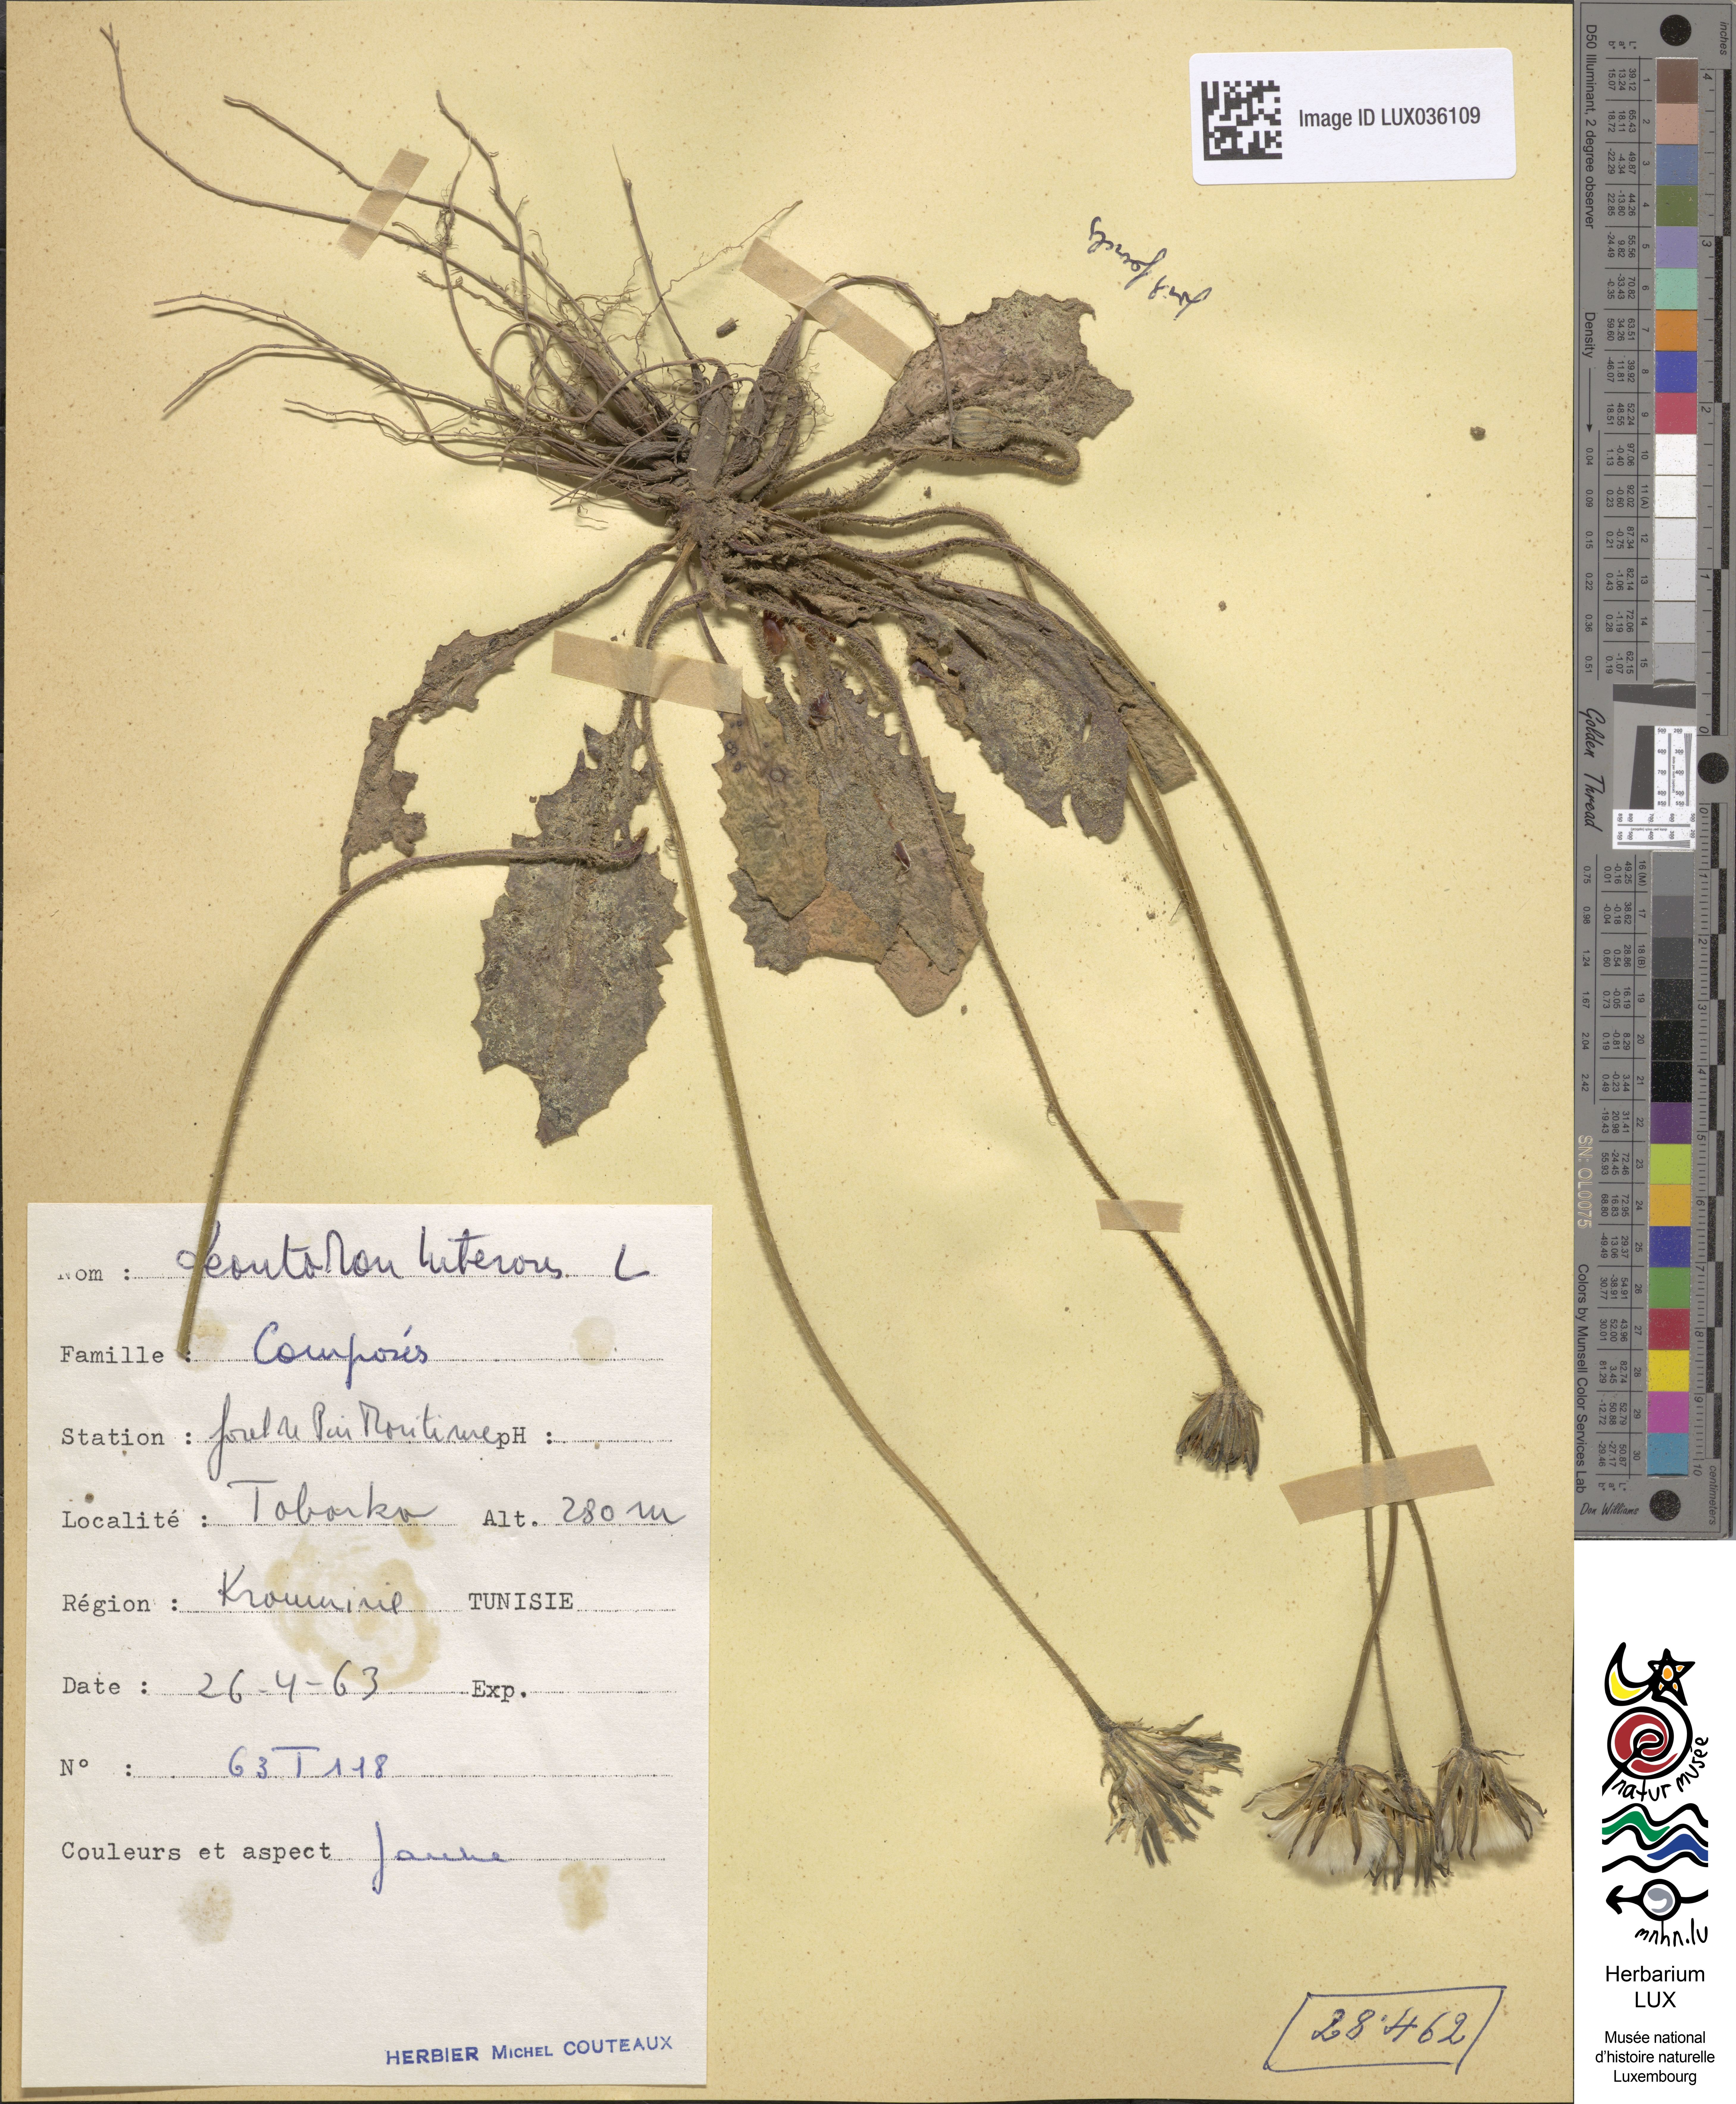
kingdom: Plantae
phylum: Tracheophyta
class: Magnoliopsida
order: Asterales
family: Asteraceae
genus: Thrincia
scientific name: Thrincia tuberosa
